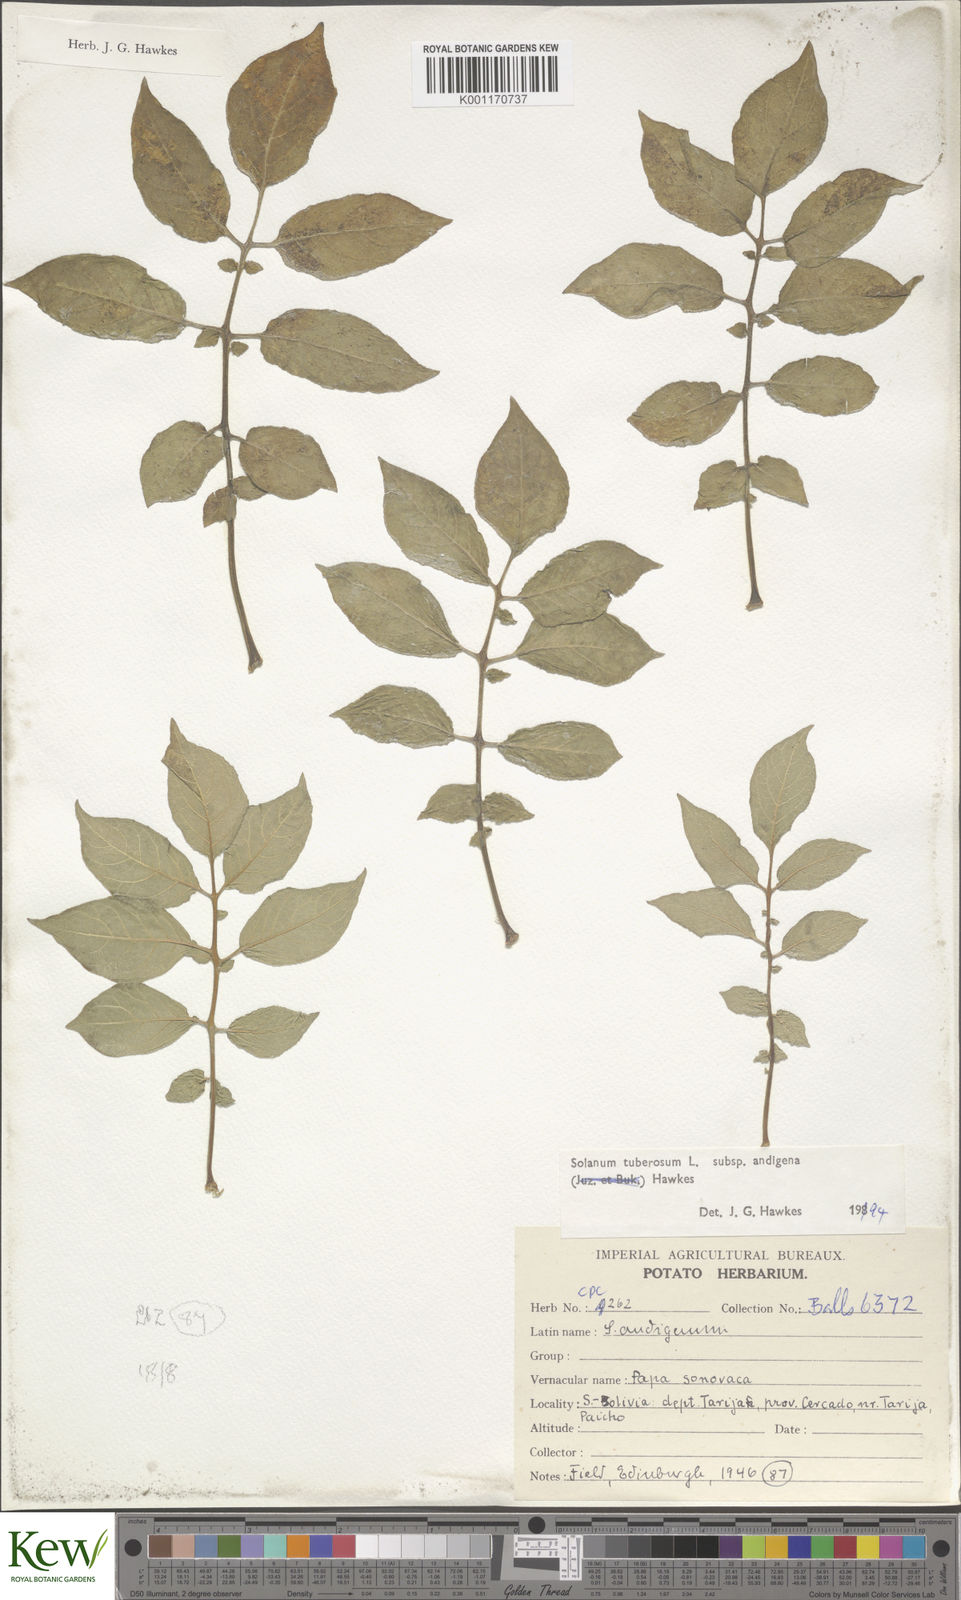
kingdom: Plantae
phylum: Tracheophyta
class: Magnoliopsida
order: Solanales
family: Solanaceae
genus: Solanum
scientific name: Solanum tuberosum
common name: Potato
